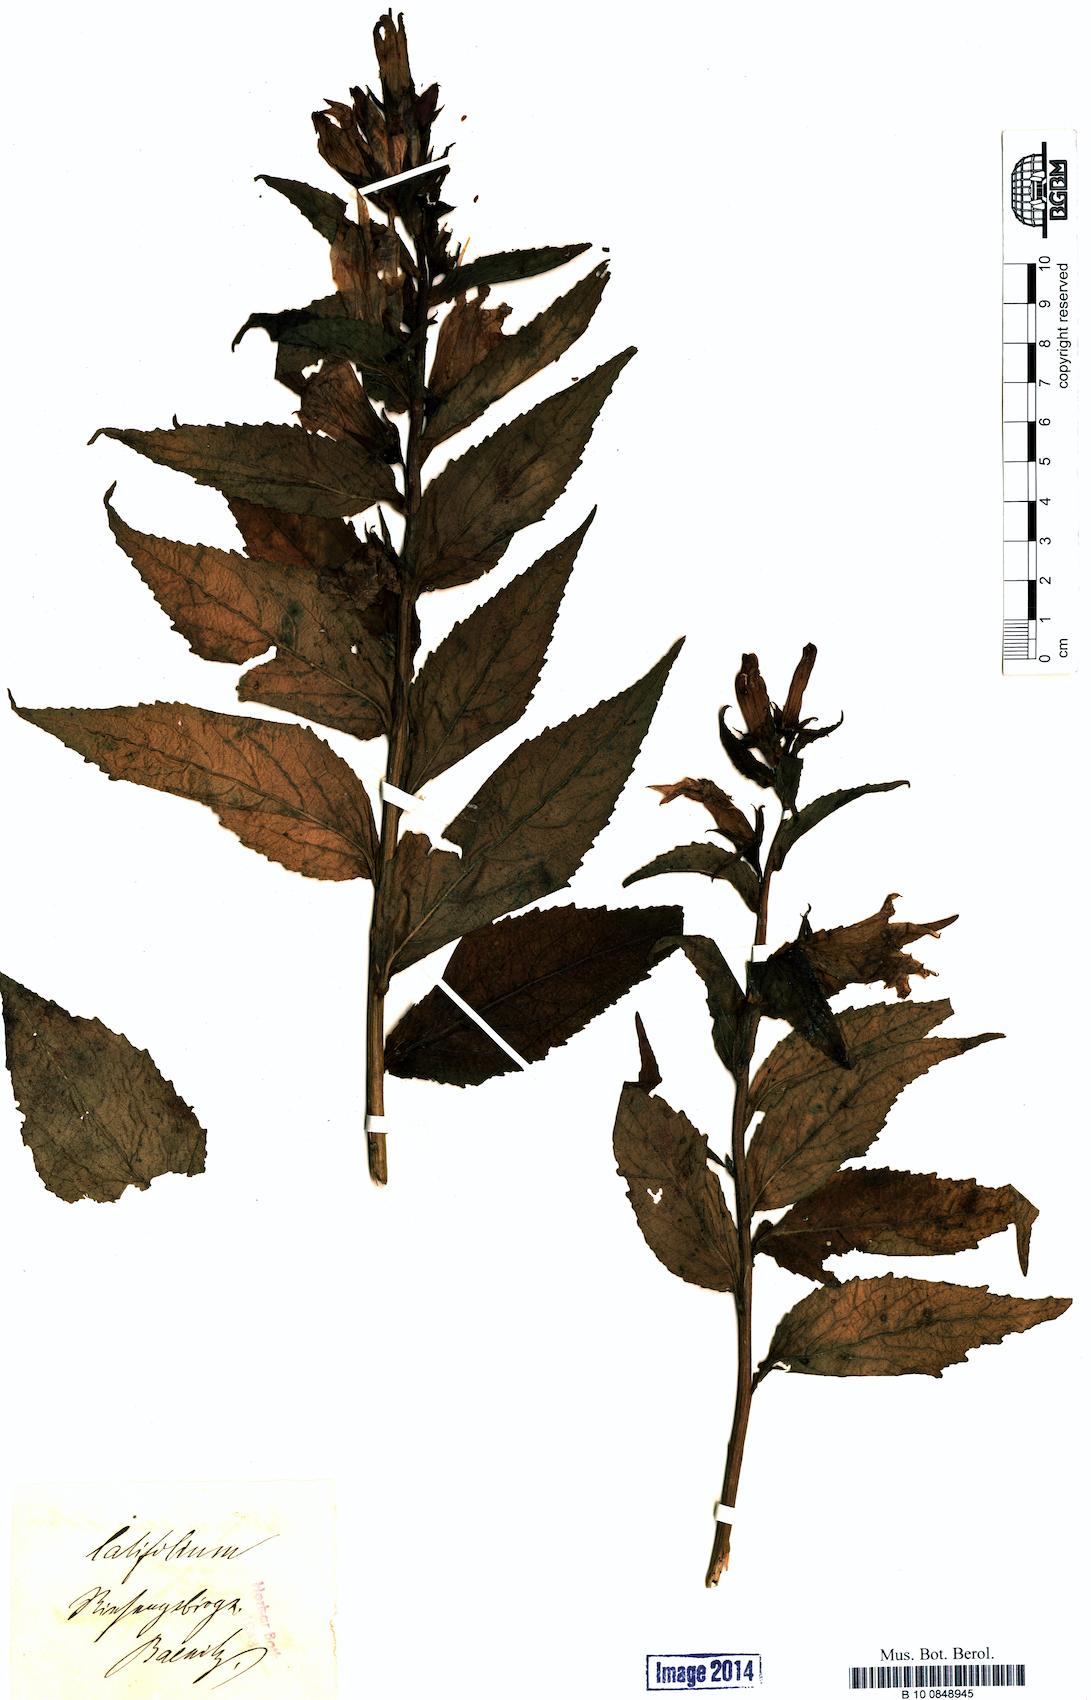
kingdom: Plantae
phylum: Tracheophyta
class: Magnoliopsida
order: Asterales
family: Campanulaceae
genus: Campanula
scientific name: Campanula latifolia
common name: Giant bellflower
